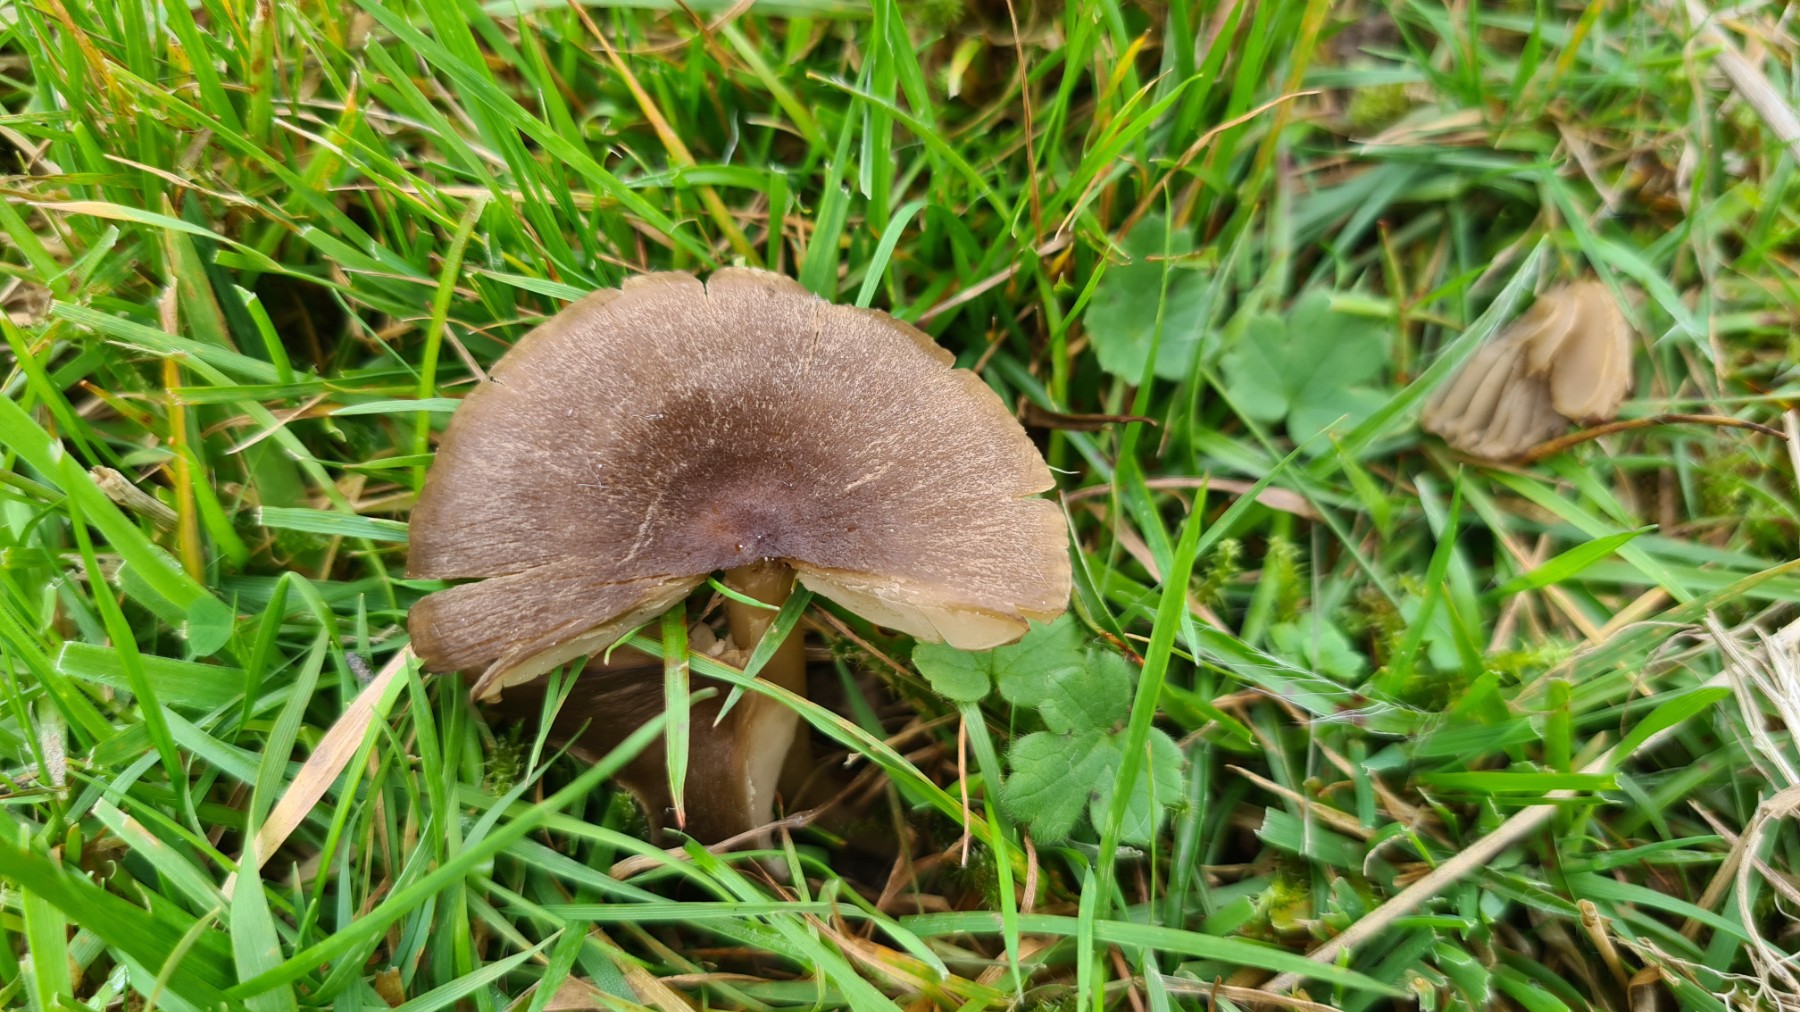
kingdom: Fungi
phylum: Basidiomycota
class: Agaricomycetes
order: Agaricales
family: Hygrophoraceae
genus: Neohygrocybe
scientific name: Neohygrocybe nitrata
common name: stinkende vokshat
